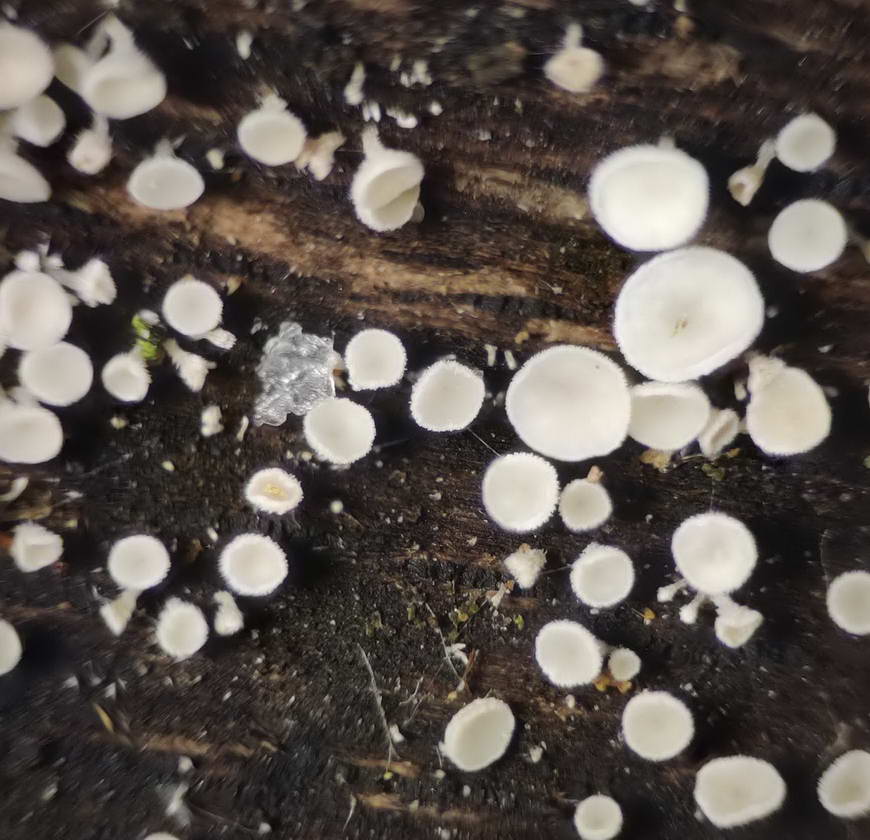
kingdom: Fungi
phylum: Ascomycota
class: Leotiomycetes
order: Helotiales
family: Lachnaceae
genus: Lachnum
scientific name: Lachnum impudicum
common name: vinter-frynseskive
